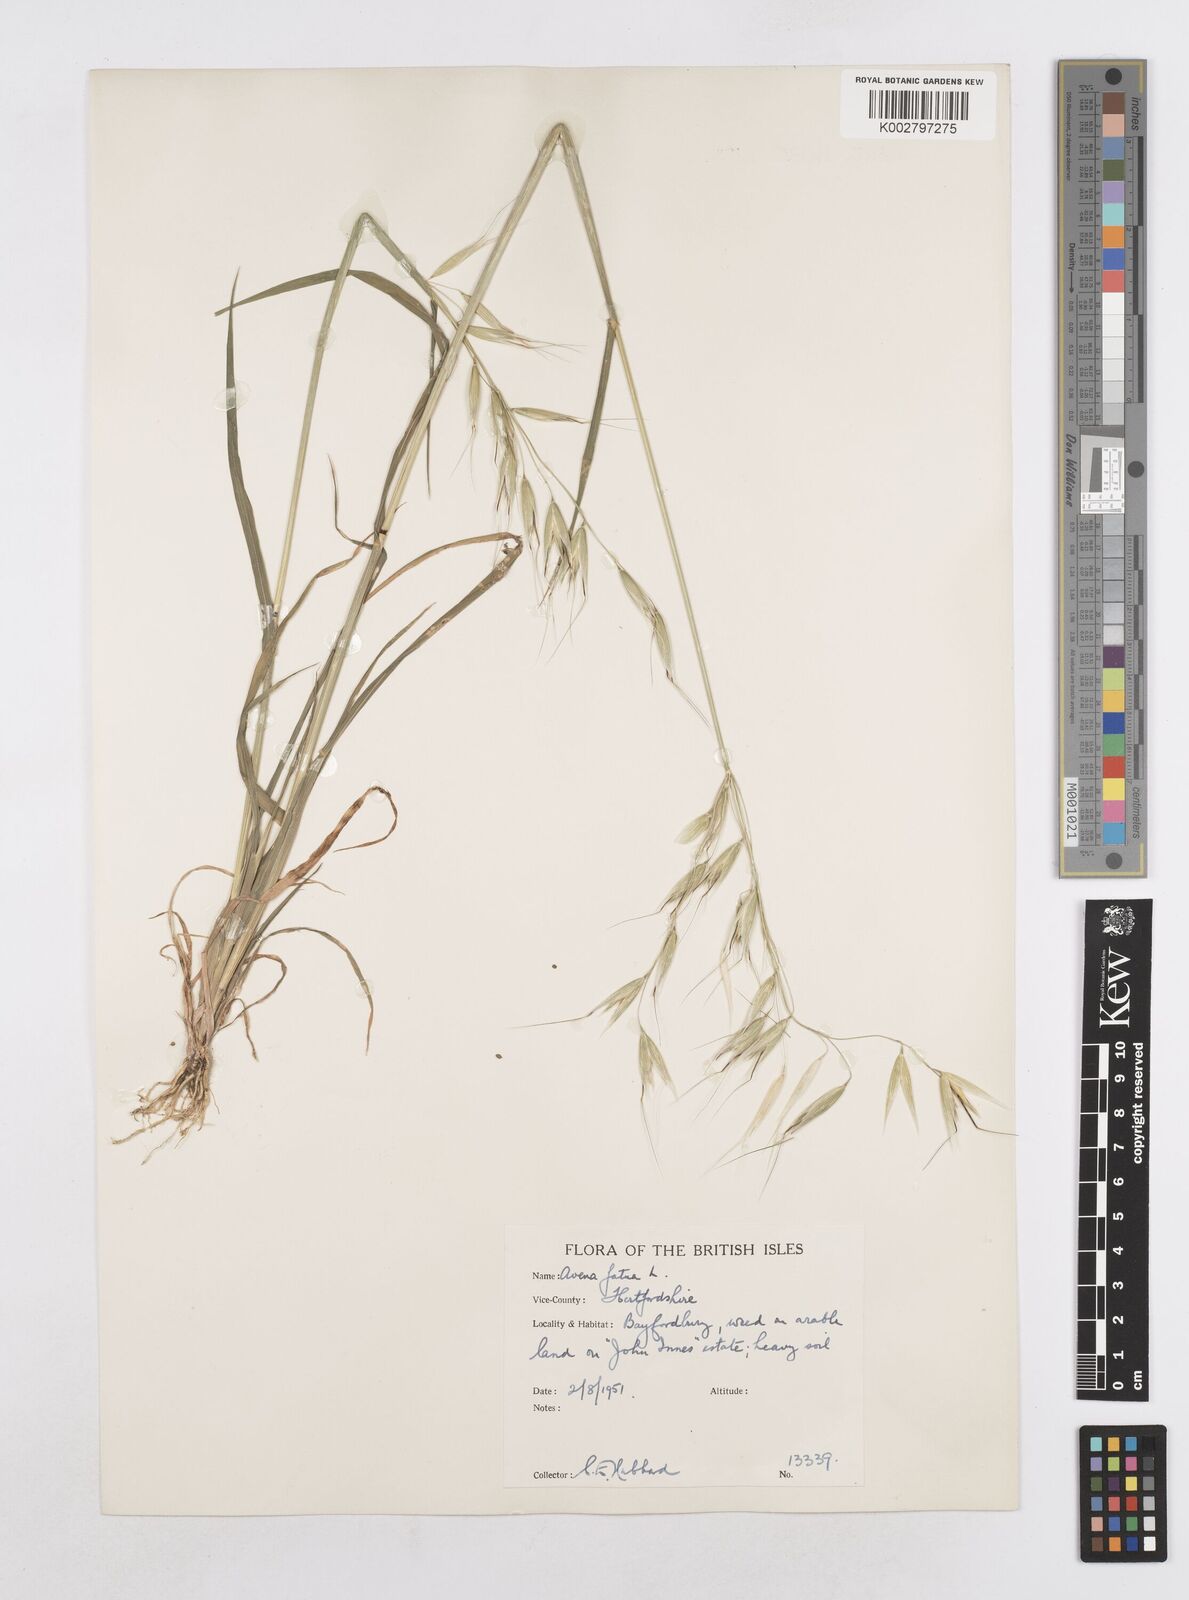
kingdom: Plantae
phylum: Tracheophyta
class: Liliopsida
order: Poales
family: Poaceae
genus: Avena
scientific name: Avena fatua
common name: Wild oat
